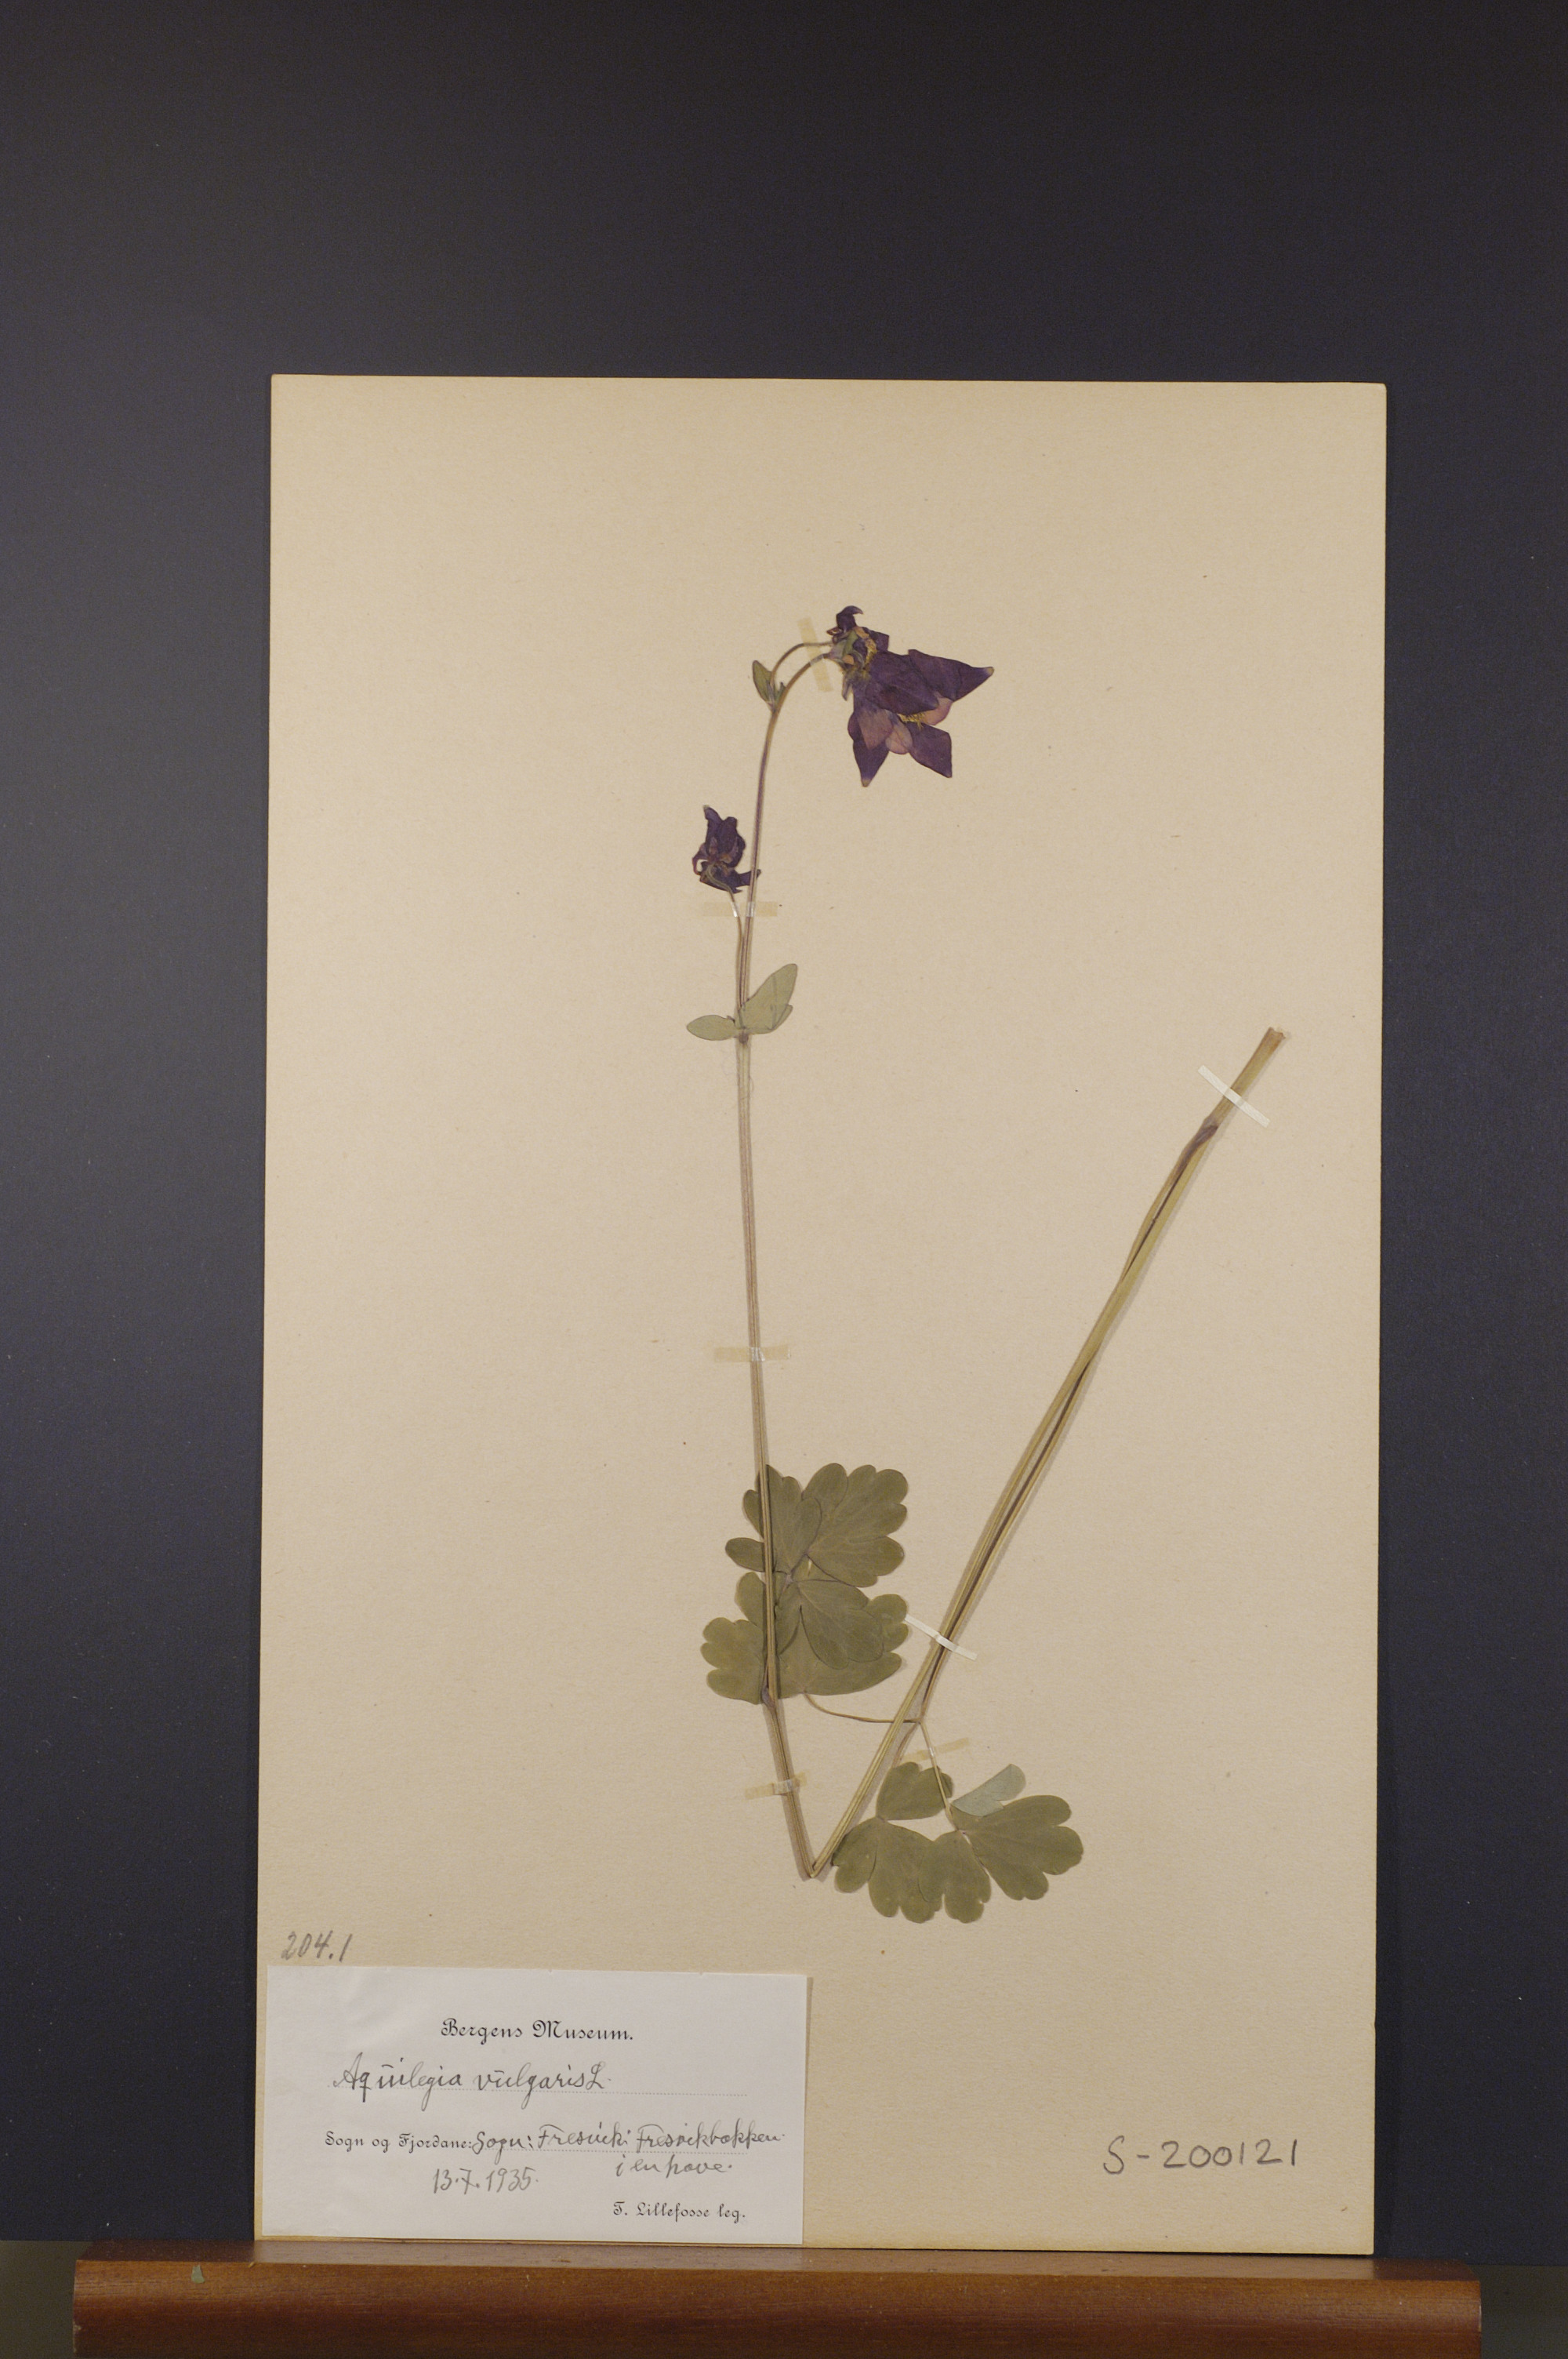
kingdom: Plantae
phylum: Tracheophyta
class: Magnoliopsida
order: Ranunculales
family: Ranunculaceae
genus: Aquilegia
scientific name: Aquilegia vulgaris
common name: Columbine
